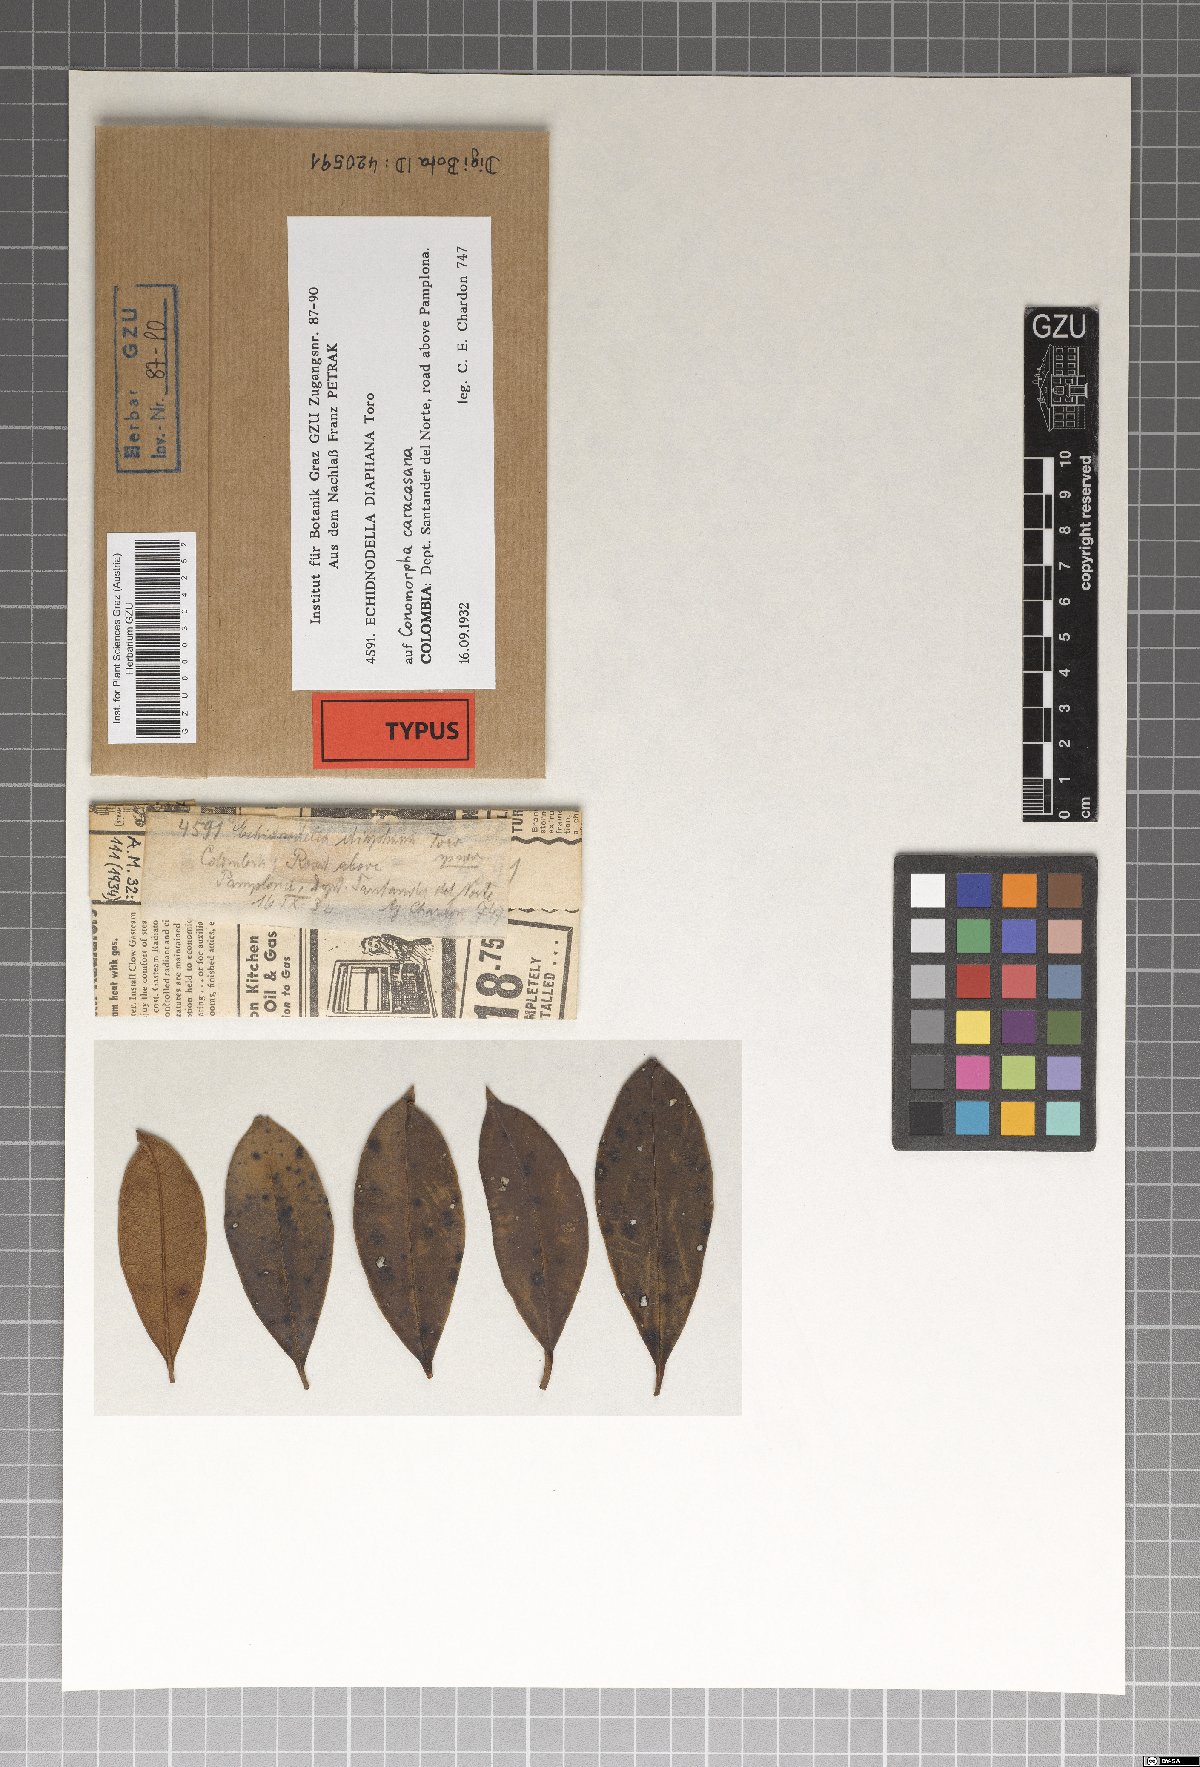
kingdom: Fungi
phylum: Ascomycota
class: Dothideomycetes
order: Asterinales
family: Asterinaceae
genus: Echidnodella
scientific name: Echidnodella diaphana
